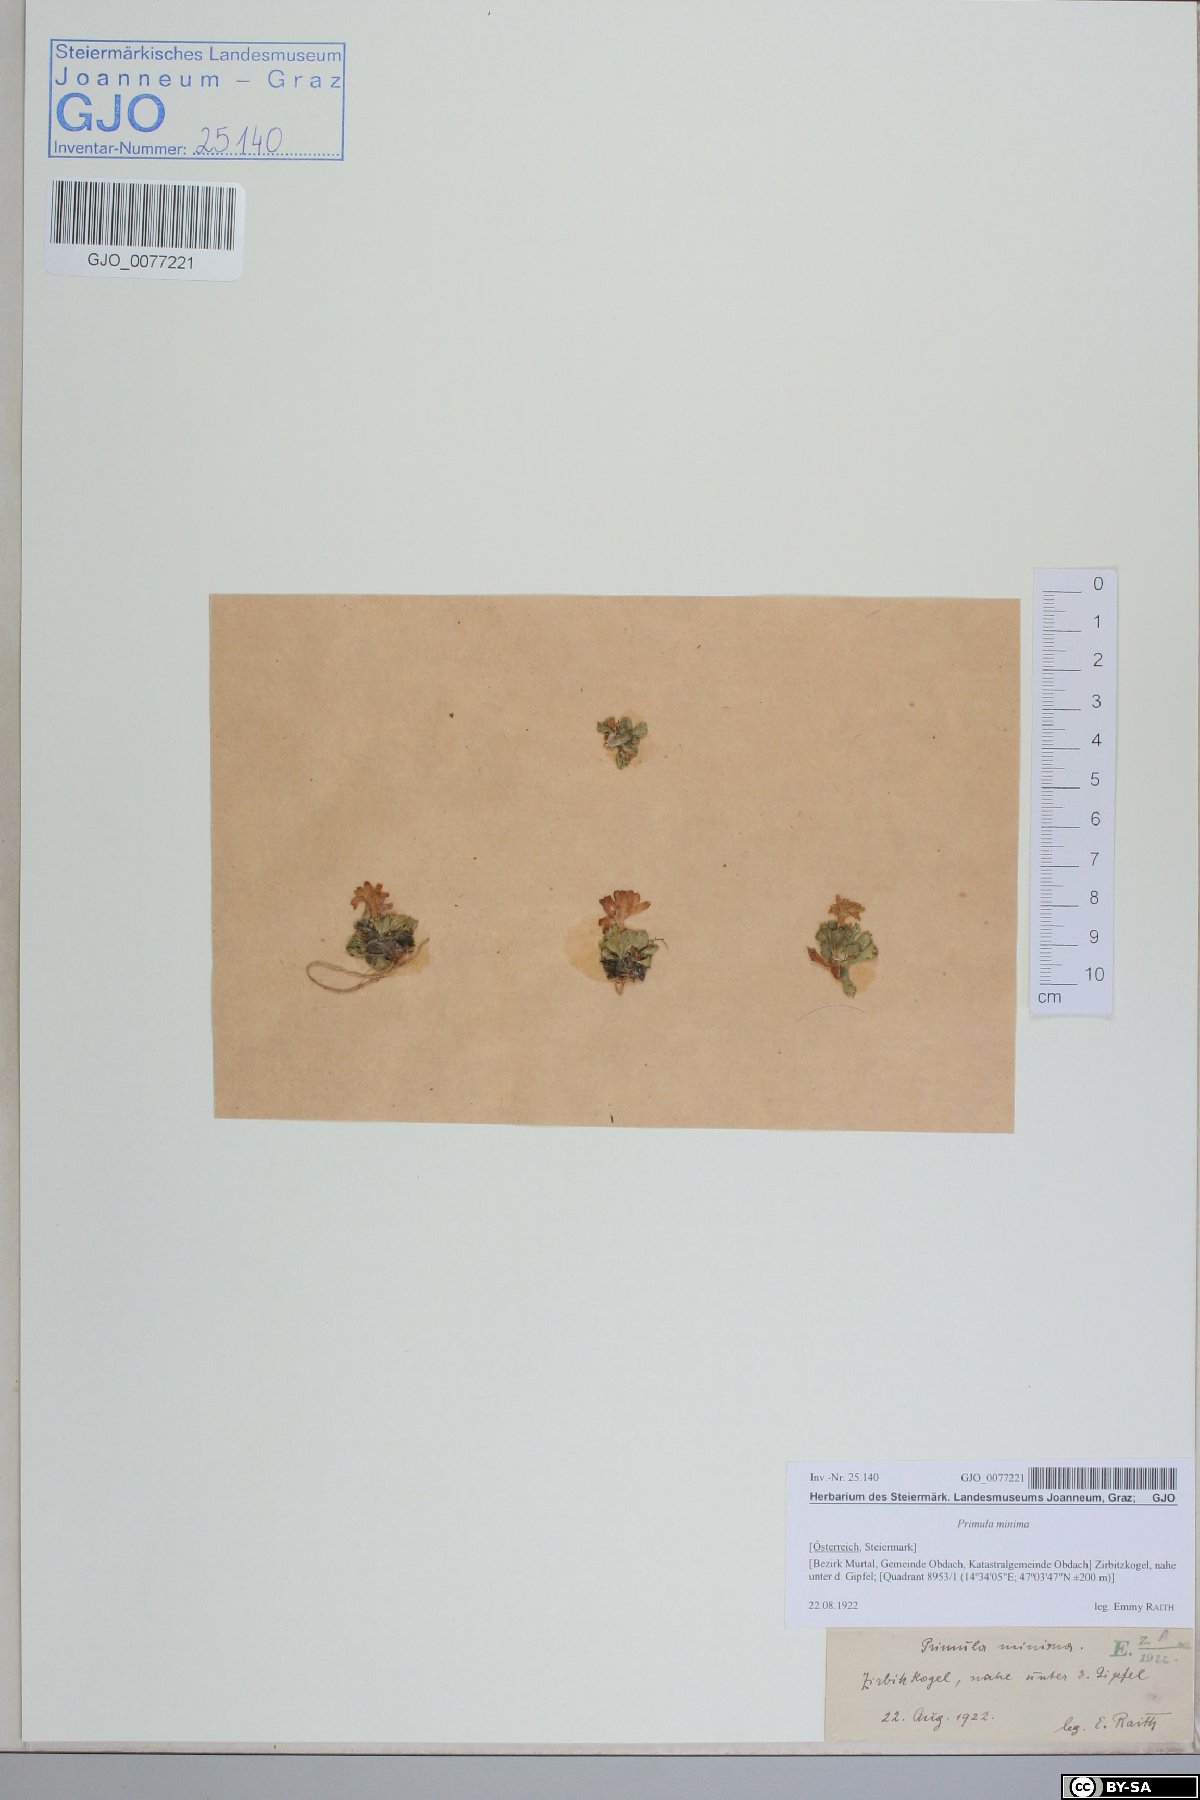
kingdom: Plantae
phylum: Tracheophyta
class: Magnoliopsida
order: Ericales
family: Primulaceae
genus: Primula
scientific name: Primula minima
